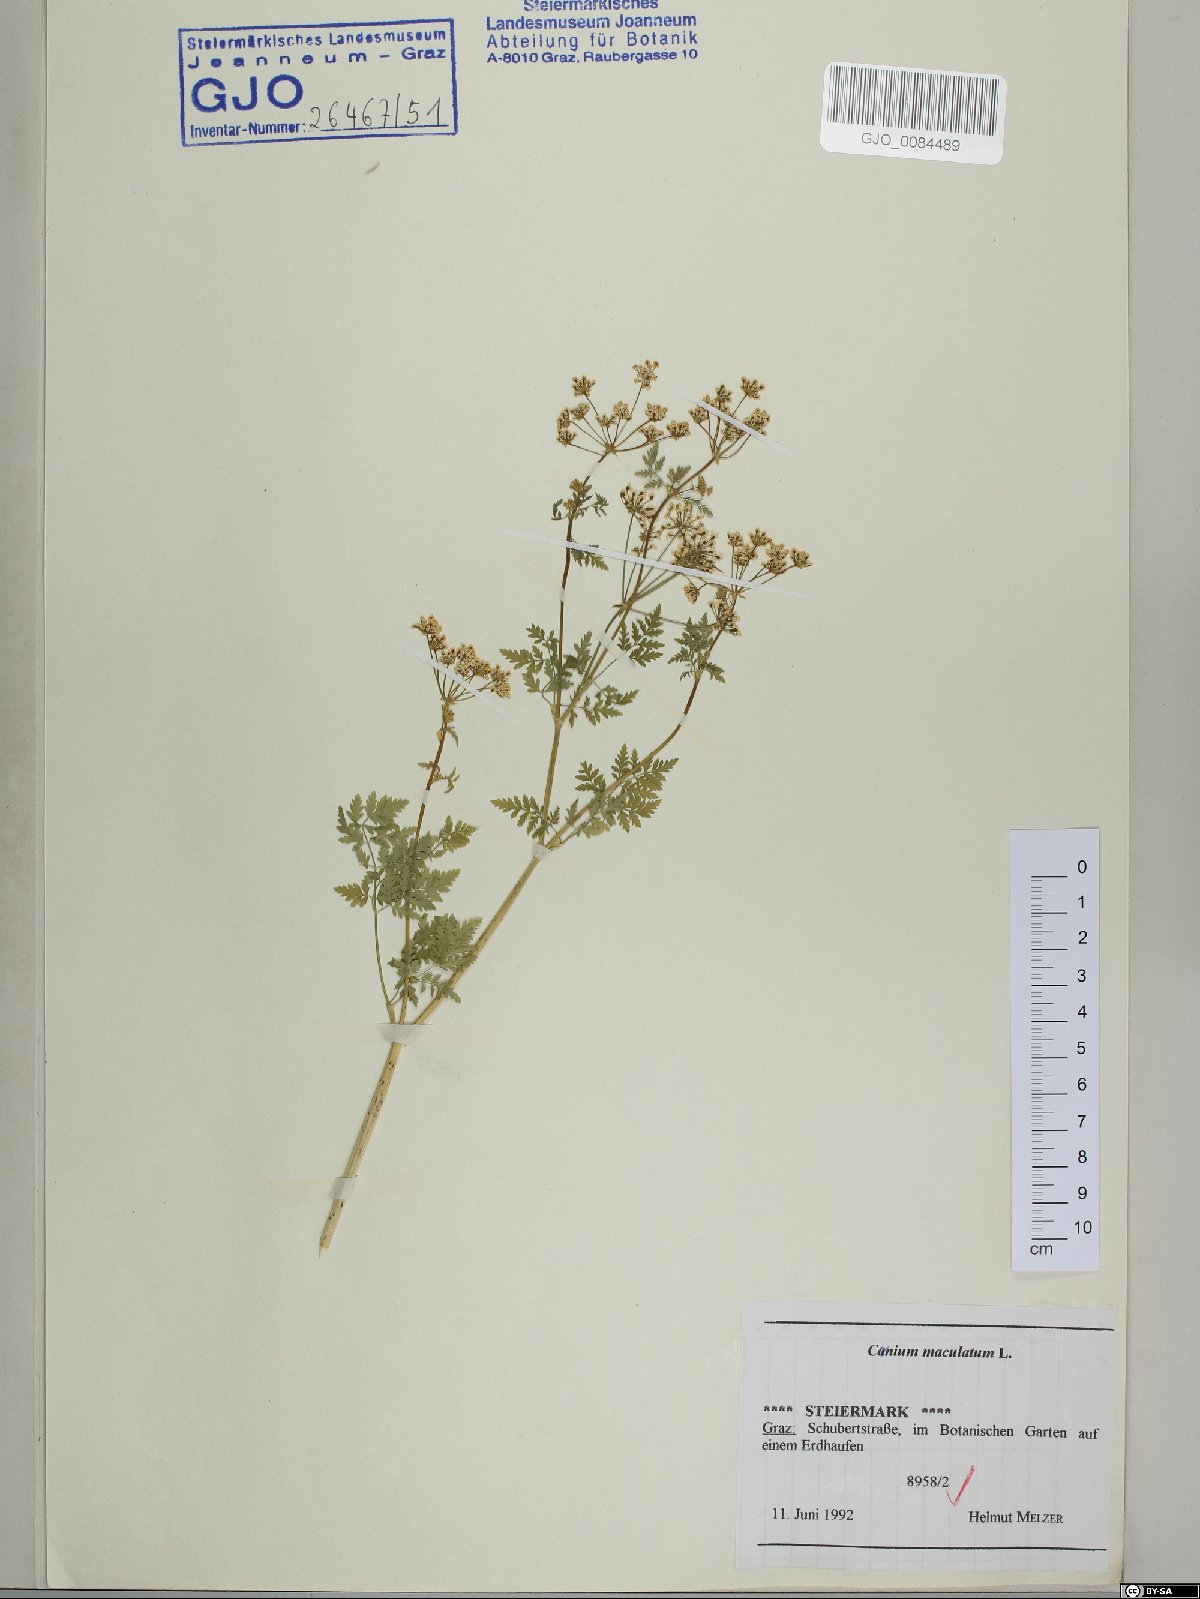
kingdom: Plantae
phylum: Tracheophyta
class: Magnoliopsida
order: Apiales
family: Apiaceae
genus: Conium
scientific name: Conium maculatum
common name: Hemlock
